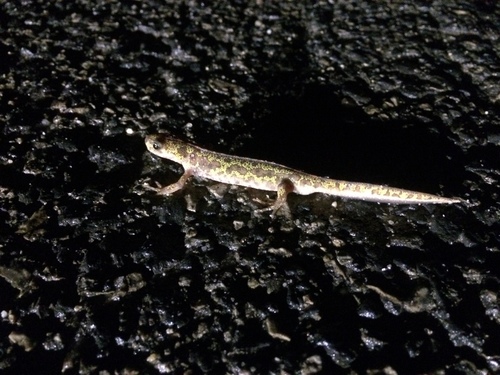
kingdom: Animalia
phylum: Chordata
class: Amphibia
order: Caudata
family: Salamandridae
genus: Triturus
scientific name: Triturus pygmaeus
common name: Southern marbled newt
